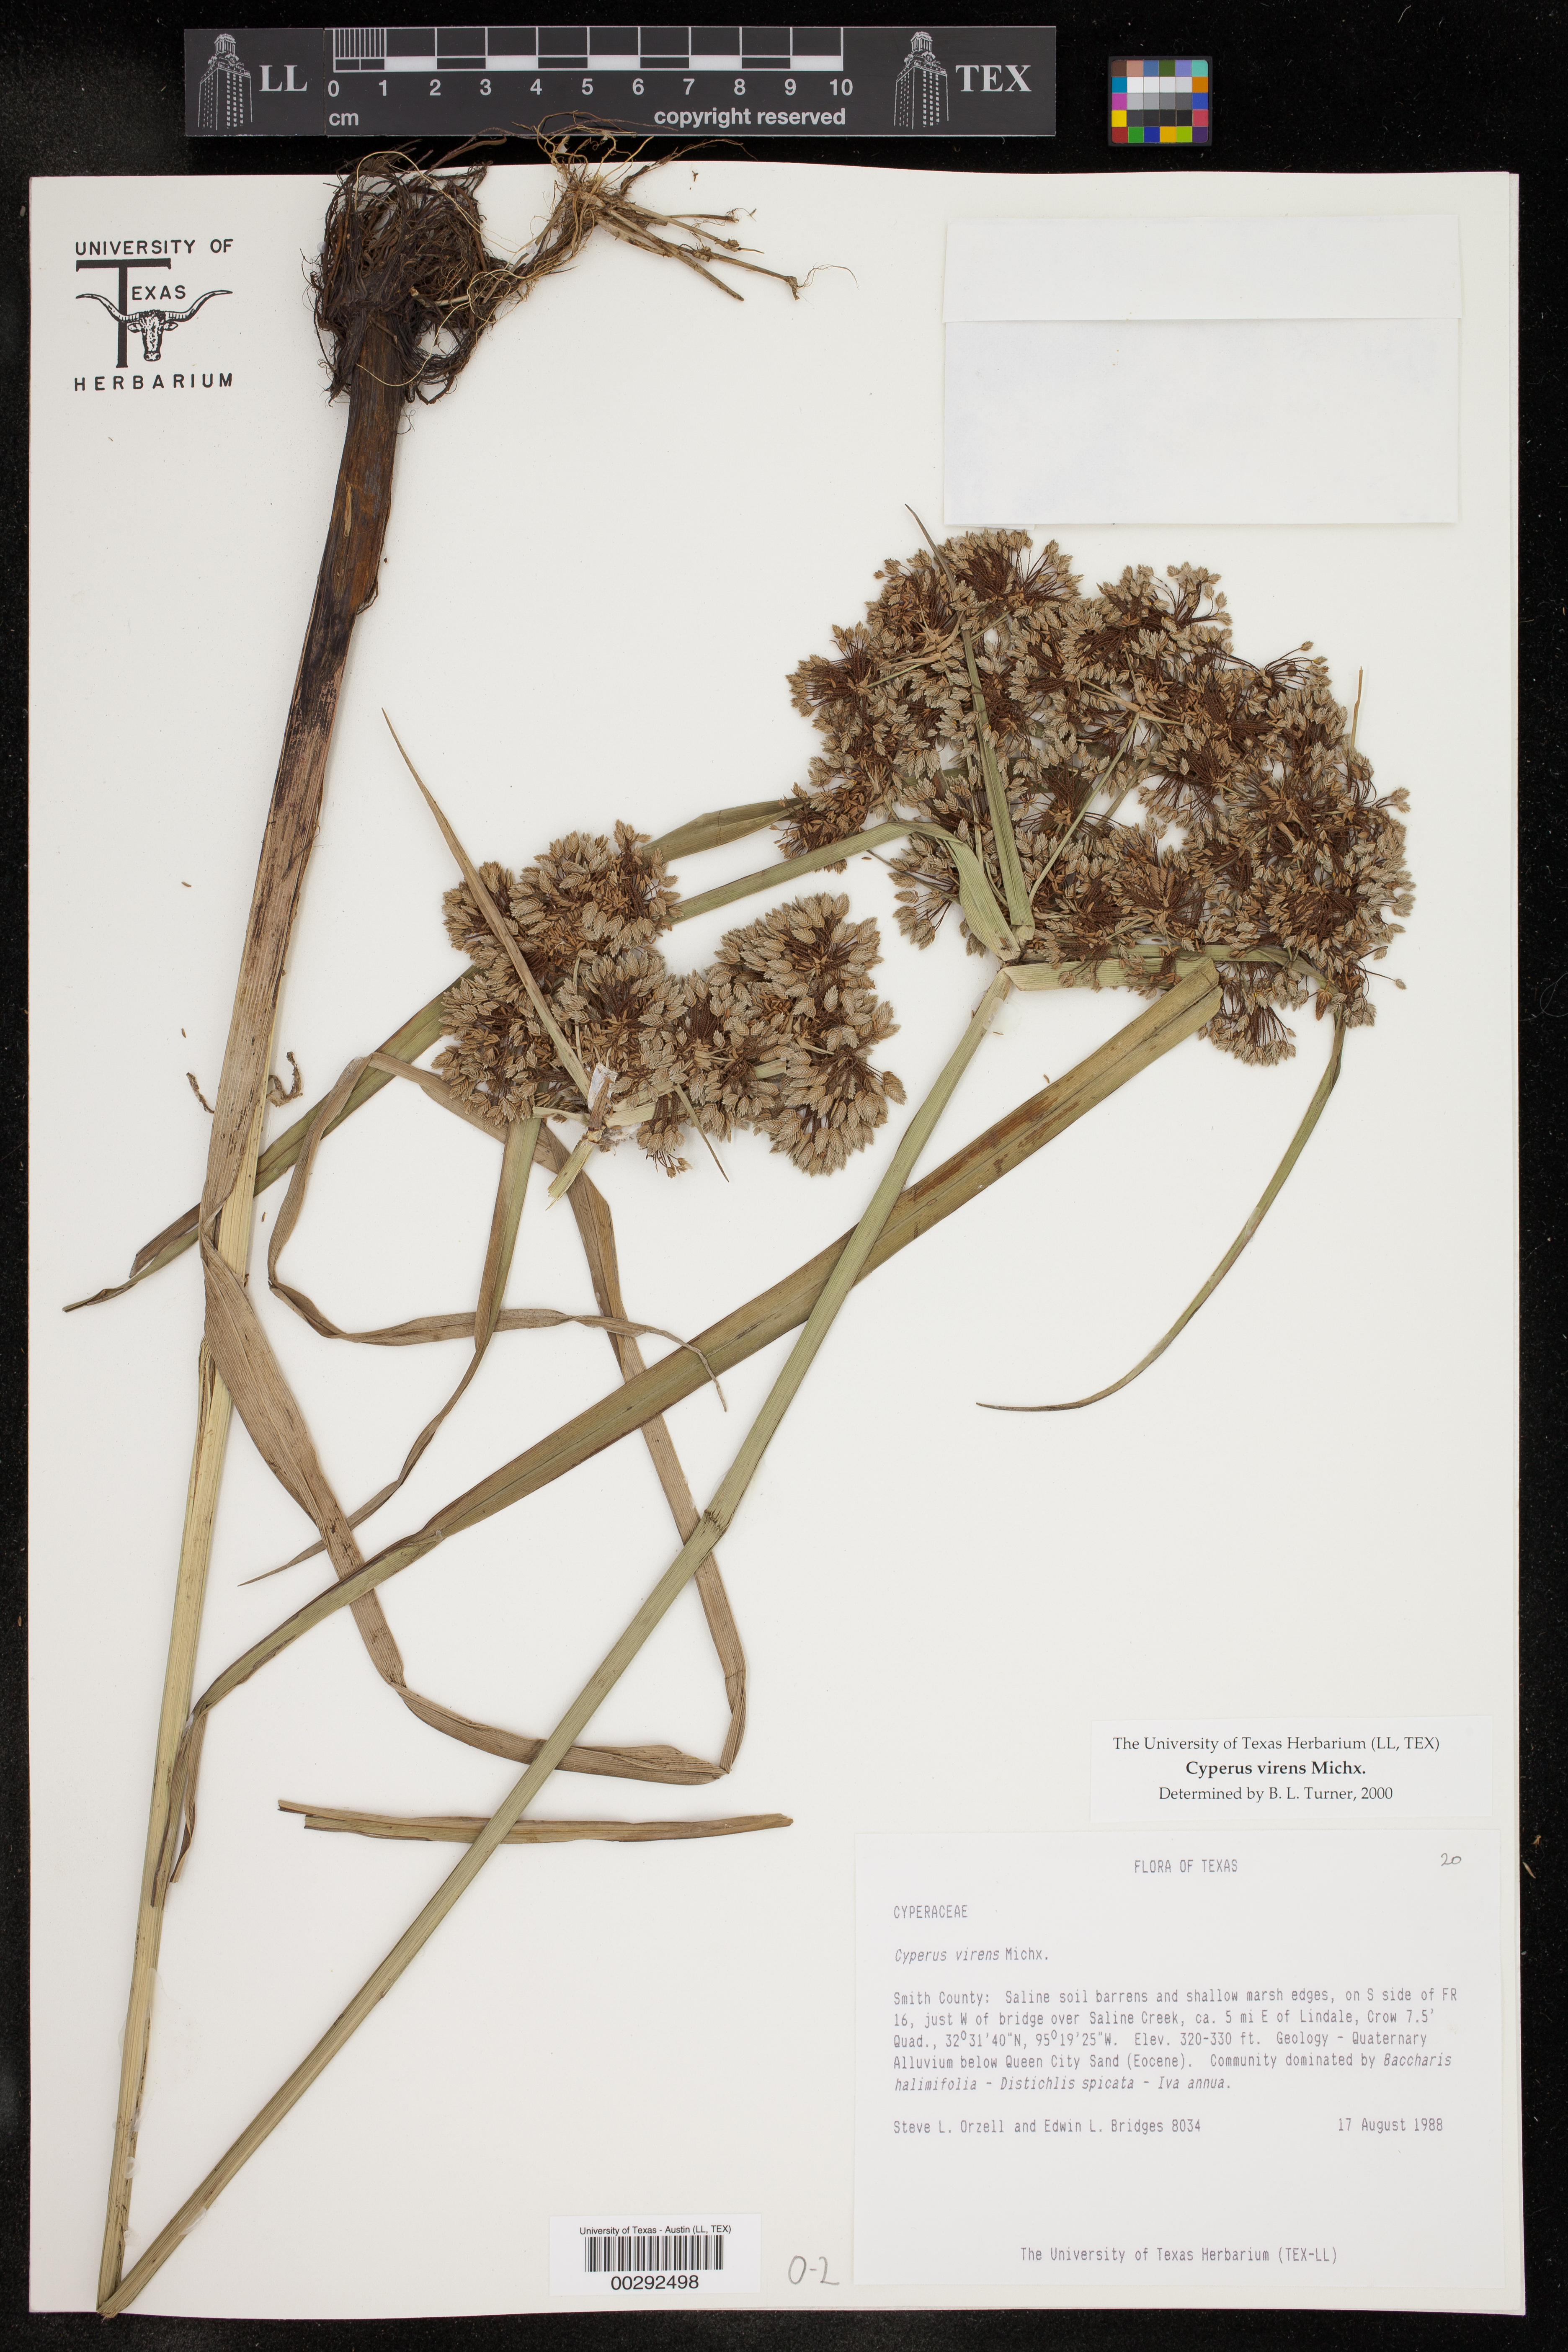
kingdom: Plantae
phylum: Tracheophyta
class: Liliopsida
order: Poales
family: Cyperaceae
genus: Cyperus
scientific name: Cyperus virens
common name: Green flatsedge
